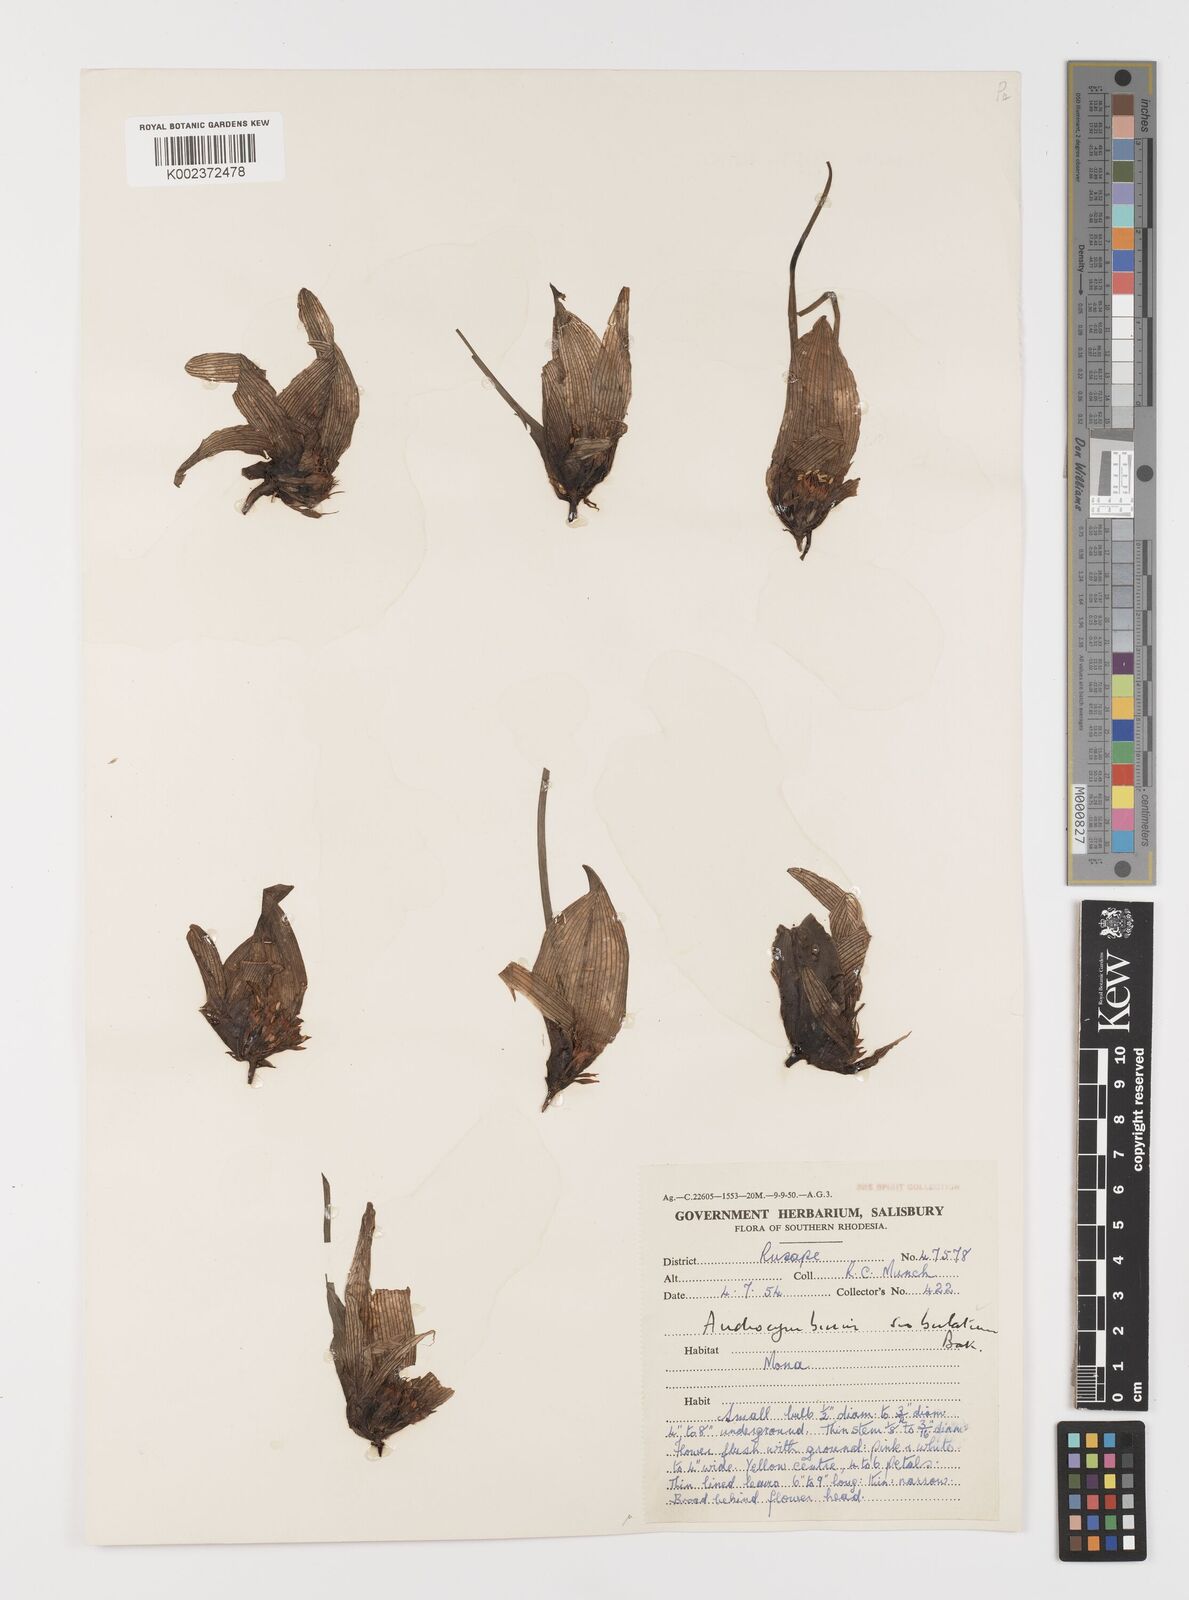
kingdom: Plantae
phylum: Tracheophyta
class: Liliopsida
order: Liliales
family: Colchicaceae
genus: Colchicum
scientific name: Colchicum melanthioides
